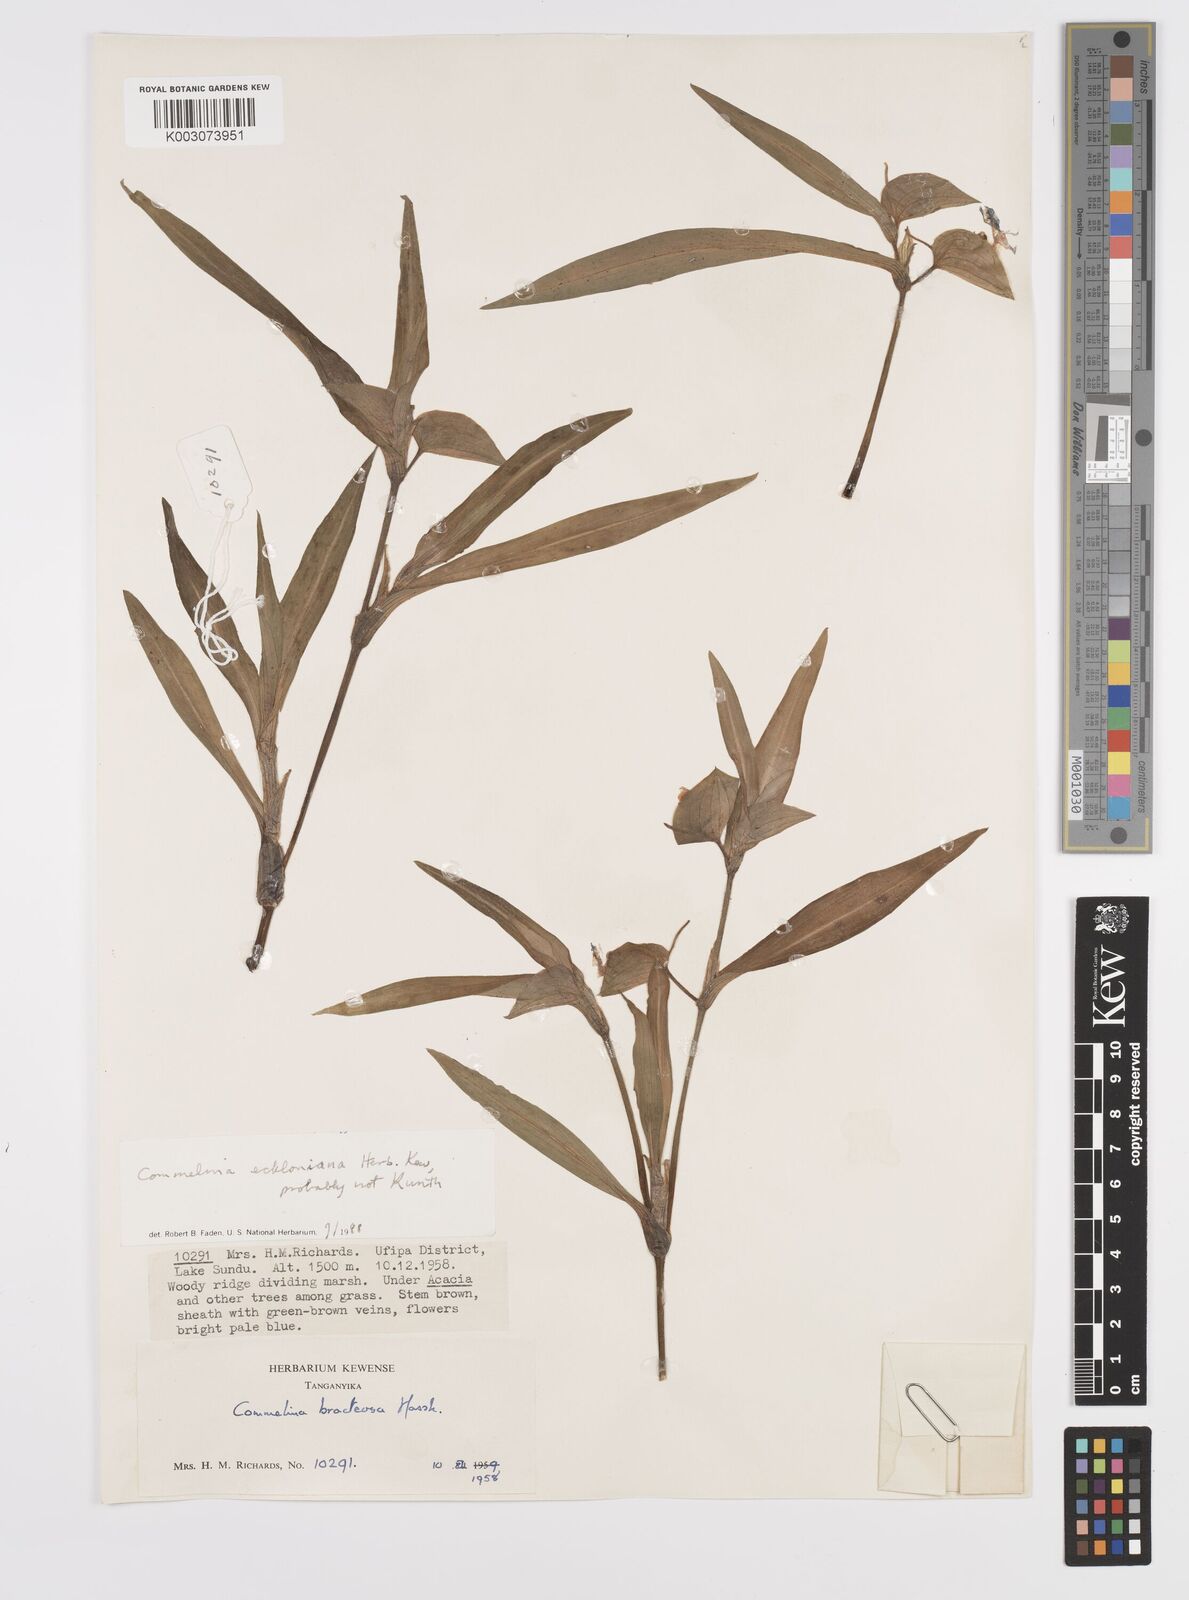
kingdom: Plantae
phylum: Tracheophyta
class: Liliopsida
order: Commelinales
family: Commelinaceae
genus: Commelina
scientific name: Commelina eckloniana
